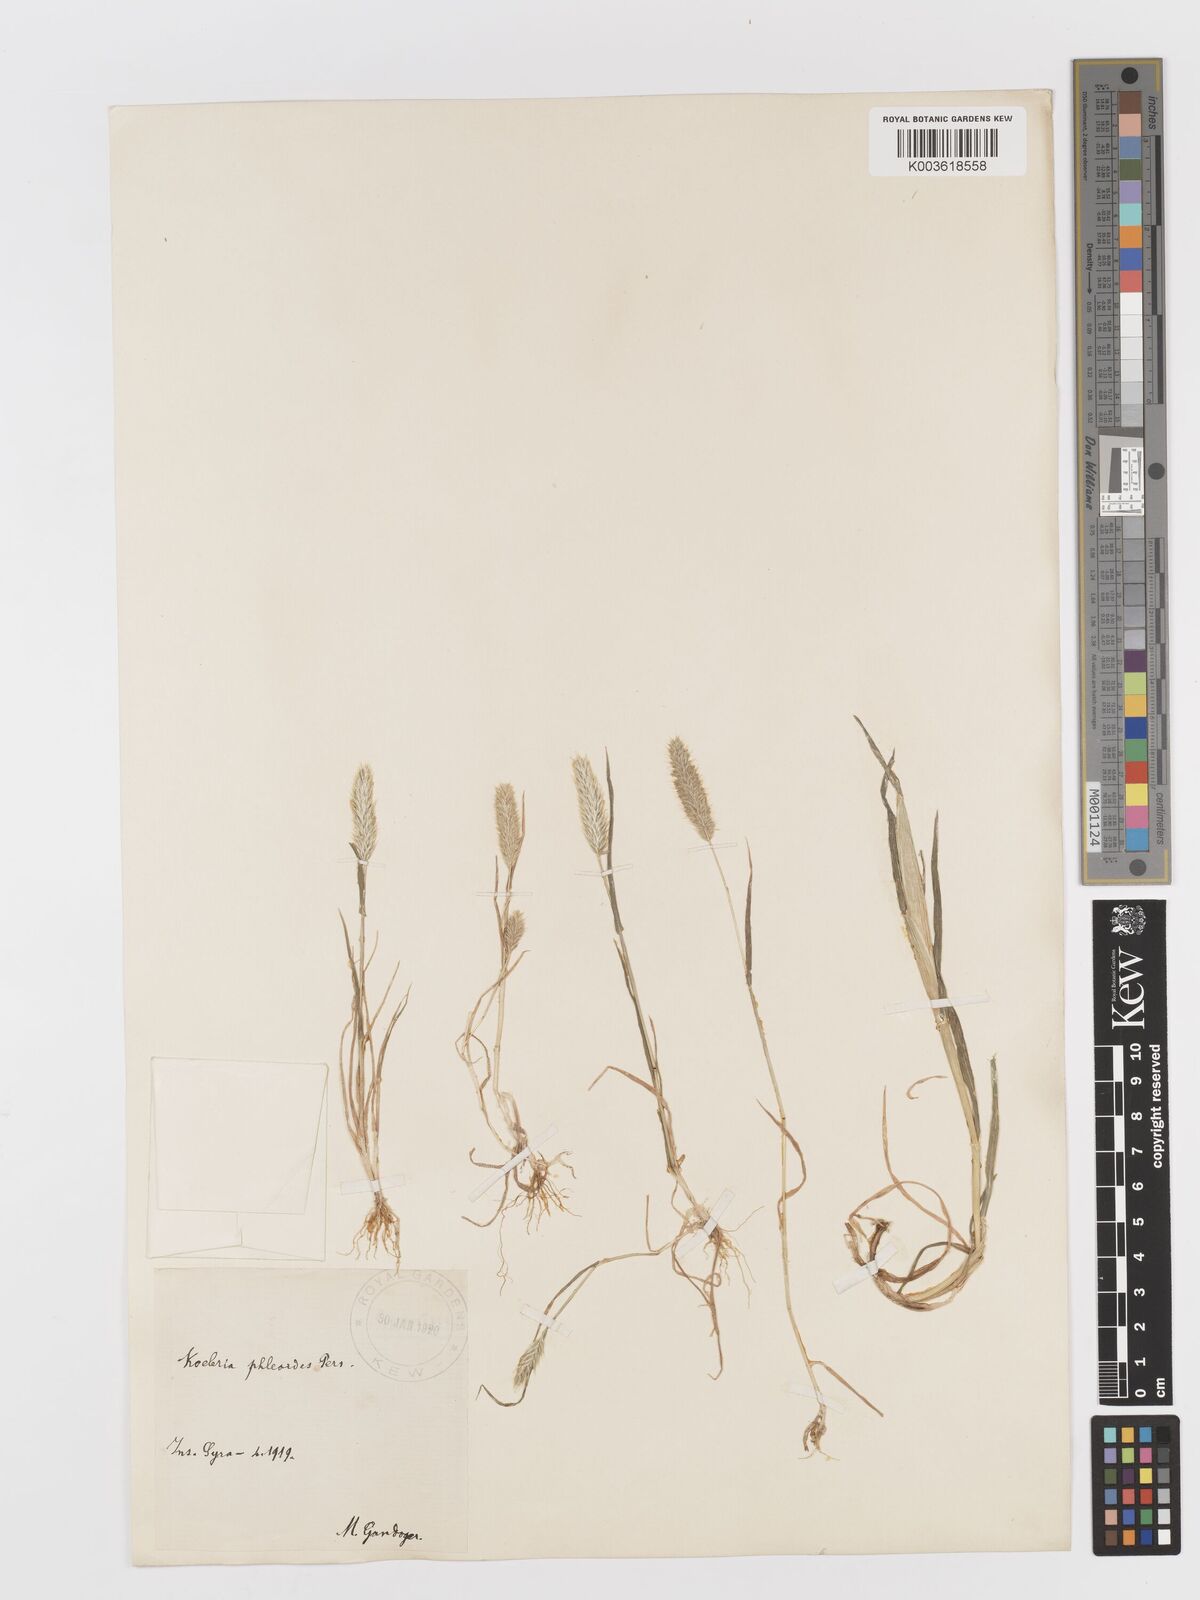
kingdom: Plantae
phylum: Tracheophyta
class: Liliopsida
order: Poales
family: Poaceae
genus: Rostraria
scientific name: Rostraria cristata
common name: Mediterranean hair-grass
